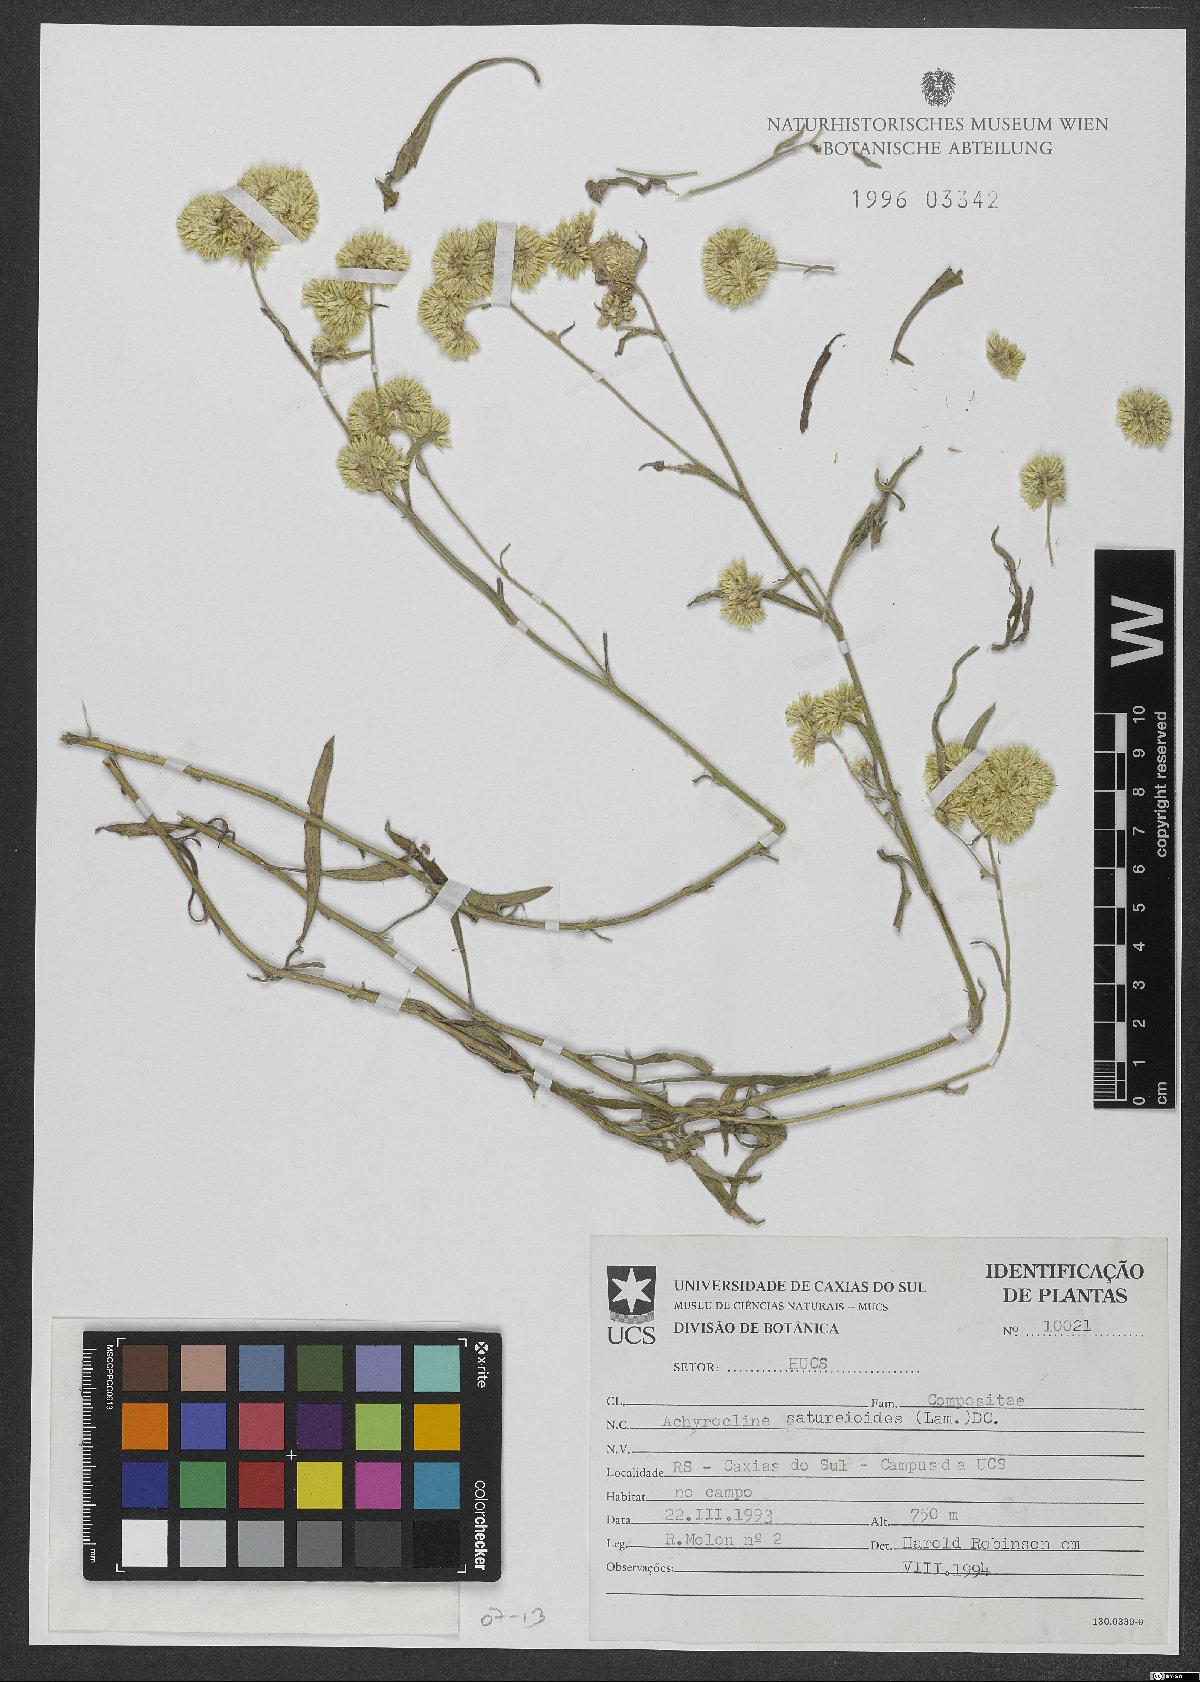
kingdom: Plantae
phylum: Tracheophyta
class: Magnoliopsida
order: Asterales
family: Asteraceae
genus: Achyrocline
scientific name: Achyrocline satureioides
